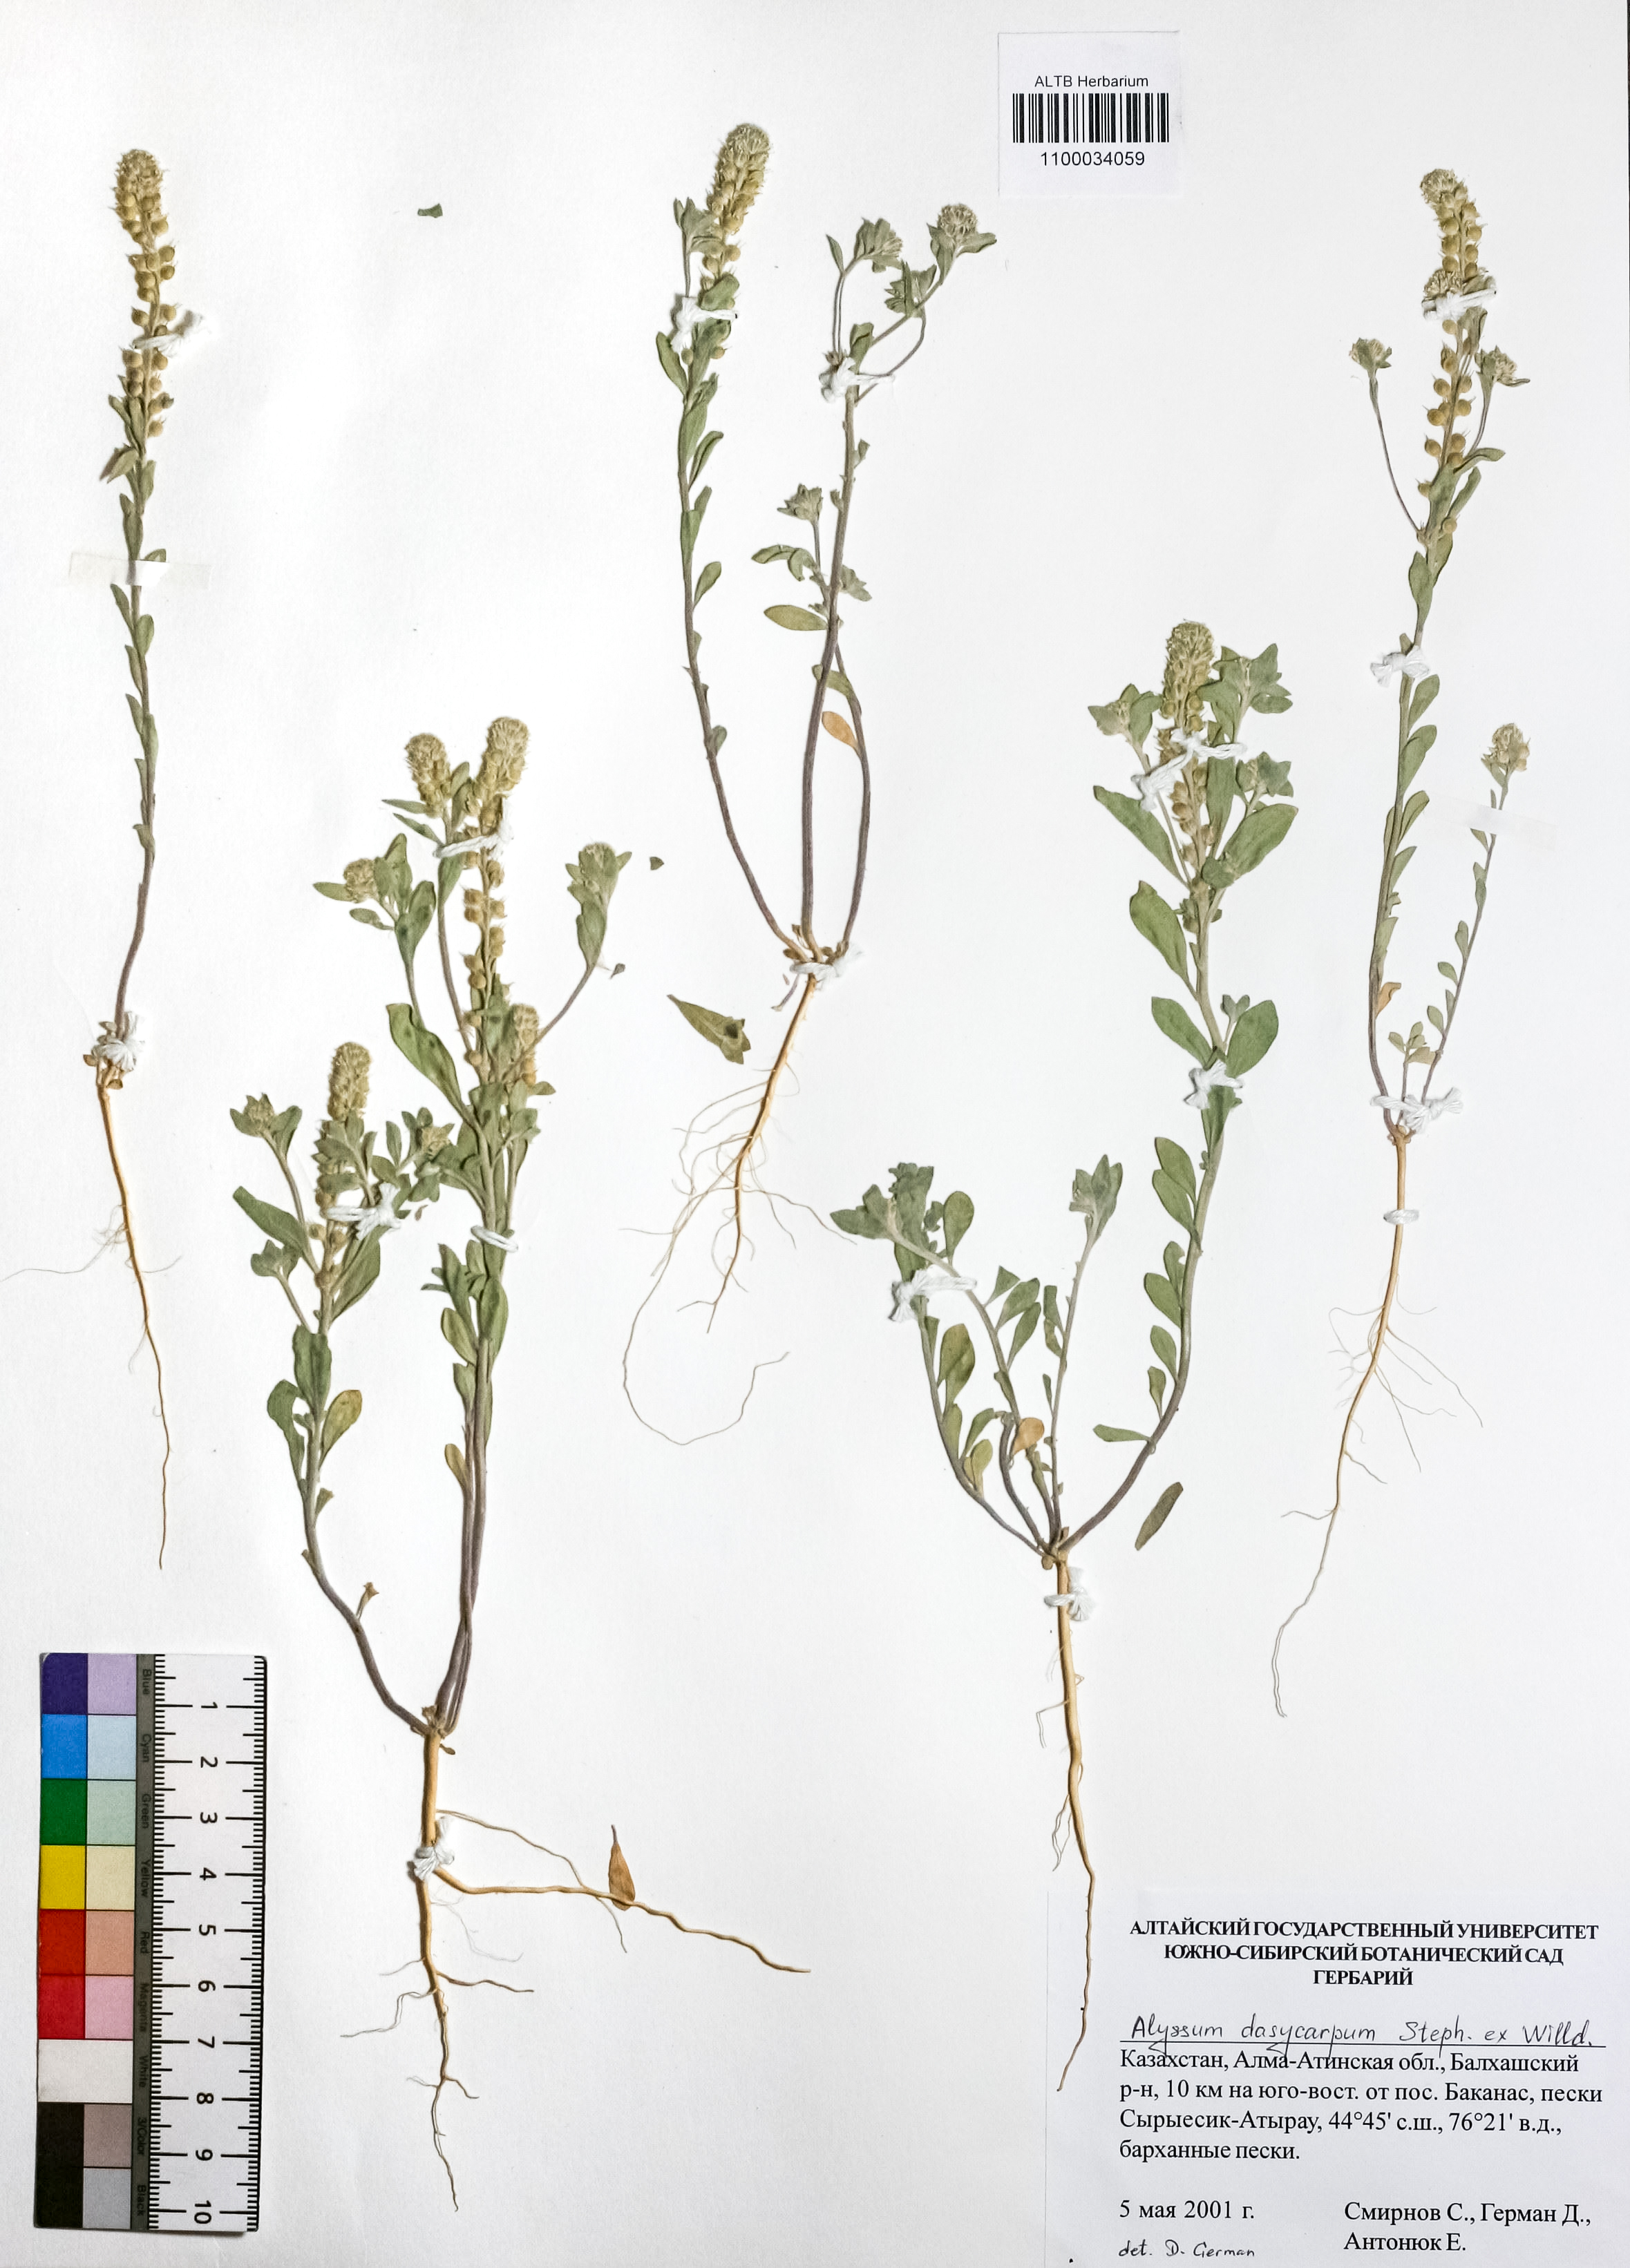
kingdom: Plantae
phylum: Tracheophyta
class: Magnoliopsida
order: Brassicales
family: Brassicaceae
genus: Alyssum
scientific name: Alyssum dasycarpum
